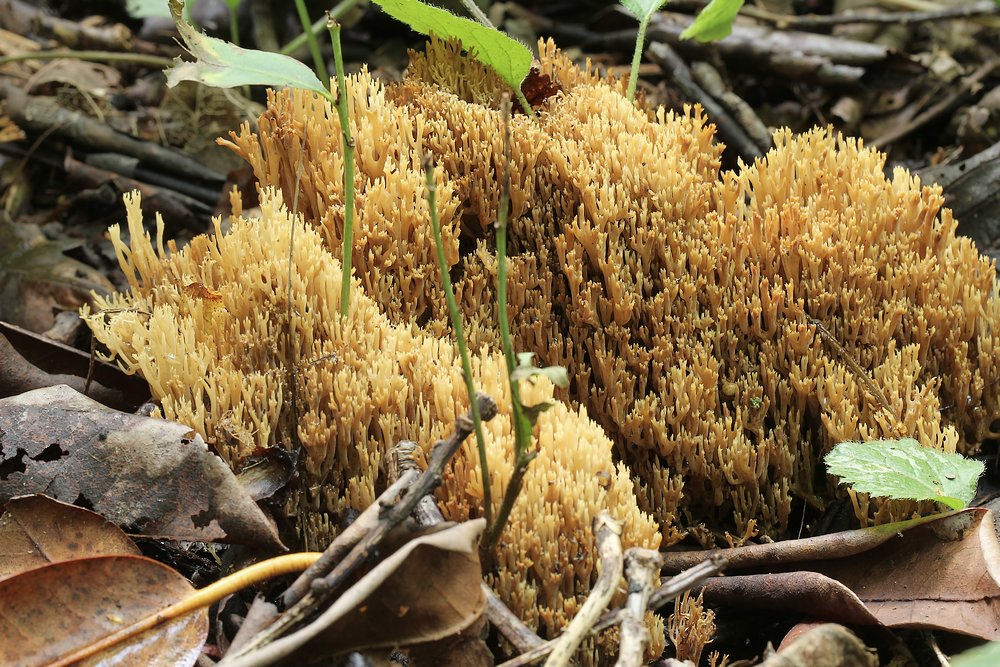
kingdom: Fungi
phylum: Basidiomycota
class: Agaricomycetes
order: Gomphales
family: Gomphaceae
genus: Phaeoclavulina
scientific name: Phaeoclavulina decurrens
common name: krat-koralsvamp
